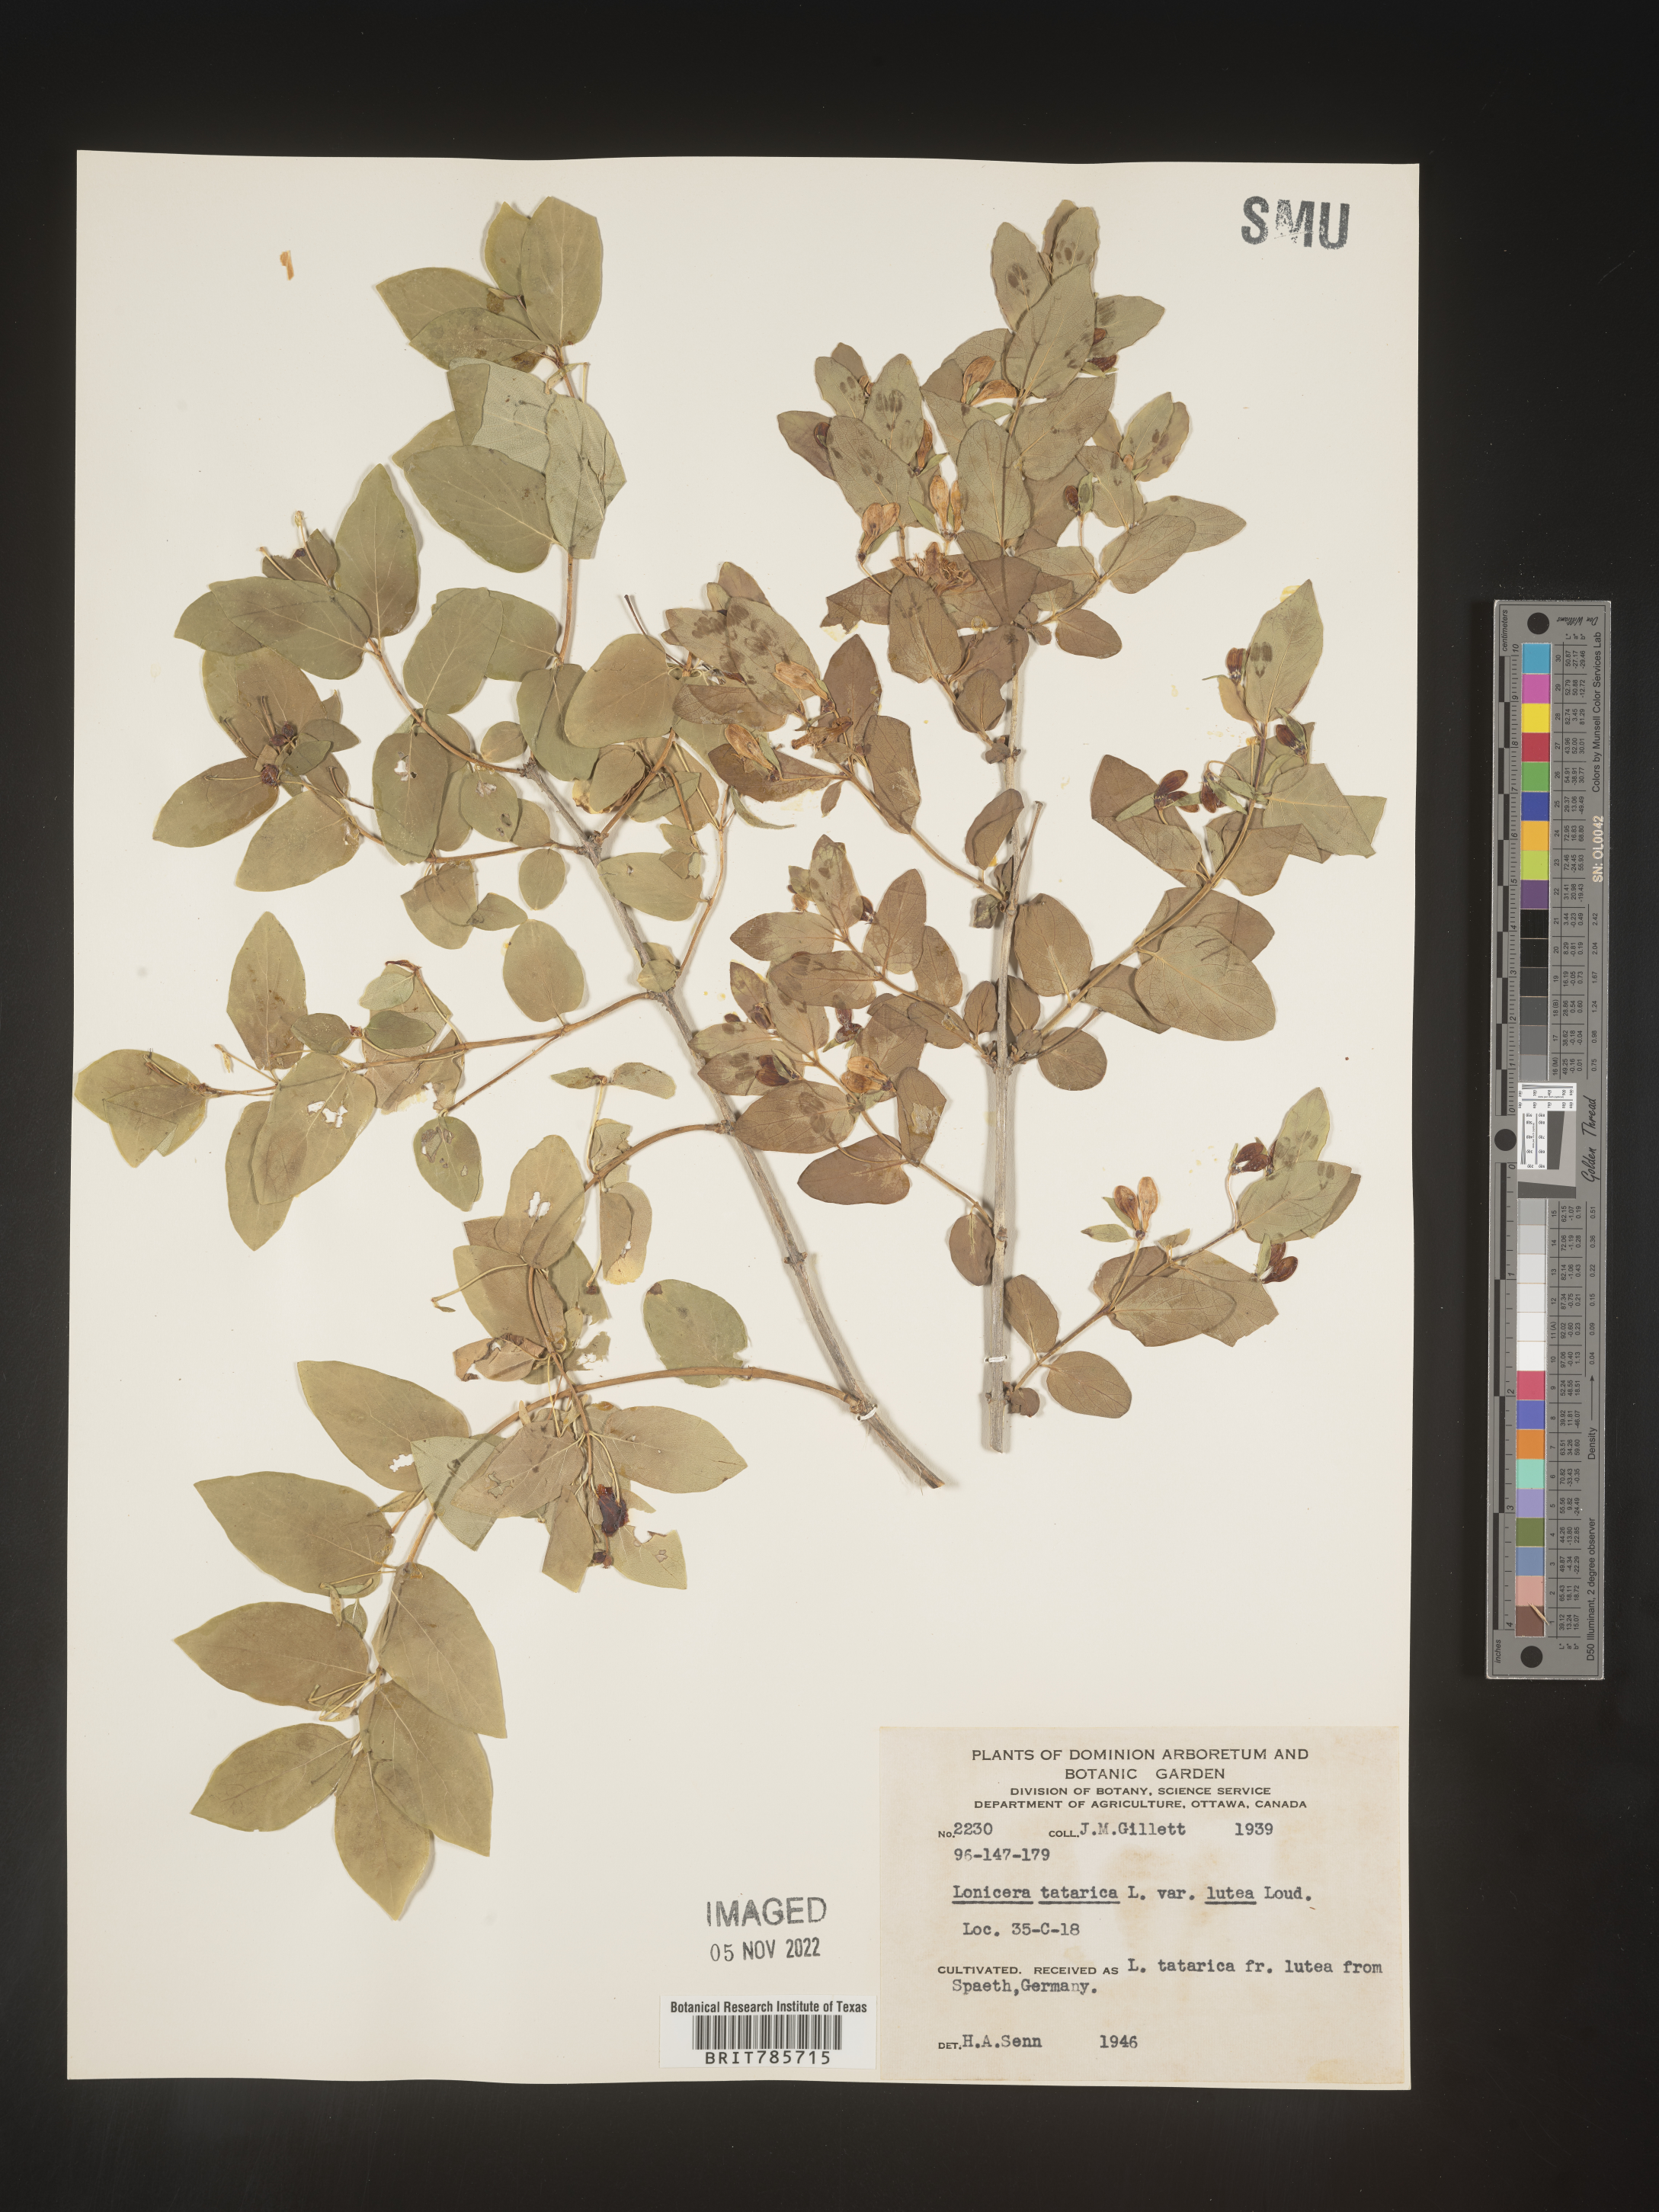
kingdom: Plantae
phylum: Tracheophyta
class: Magnoliopsida
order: Dipsacales
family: Caprifoliaceae
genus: Lonicera
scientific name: Lonicera
